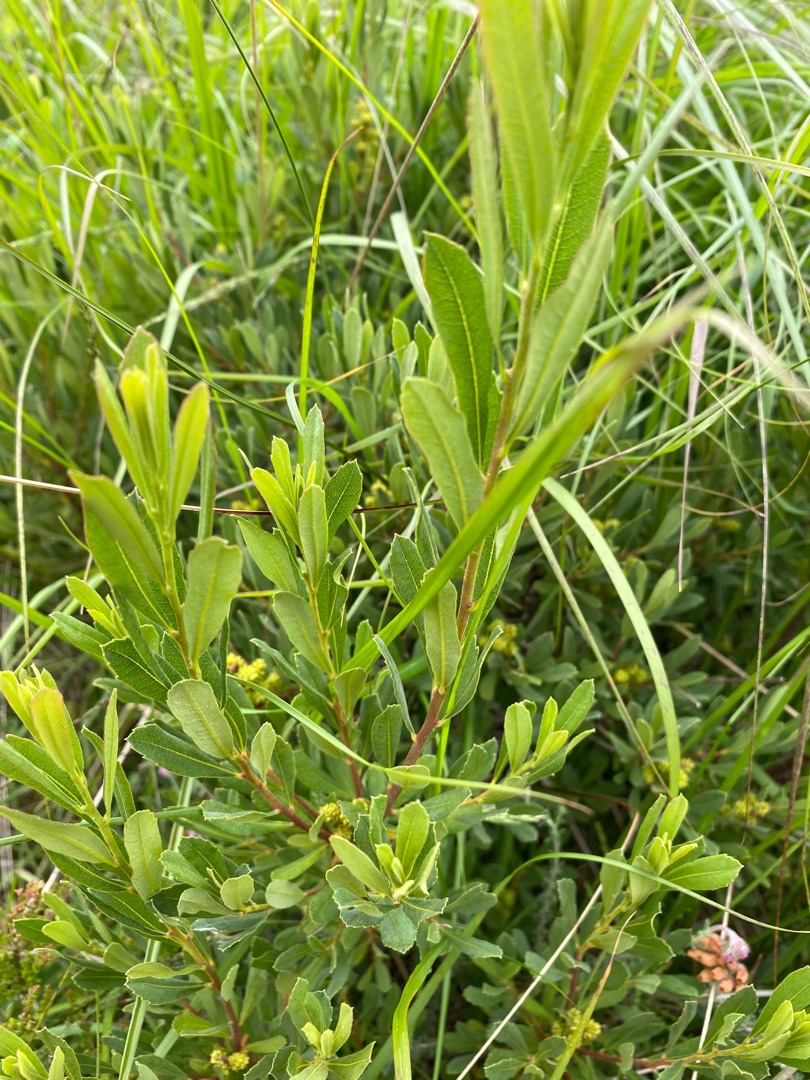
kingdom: Plantae
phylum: Tracheophyta
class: Magnoliopsida
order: Fagales
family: Myricaceae
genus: Myrica
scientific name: Myrica gale
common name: Pors
